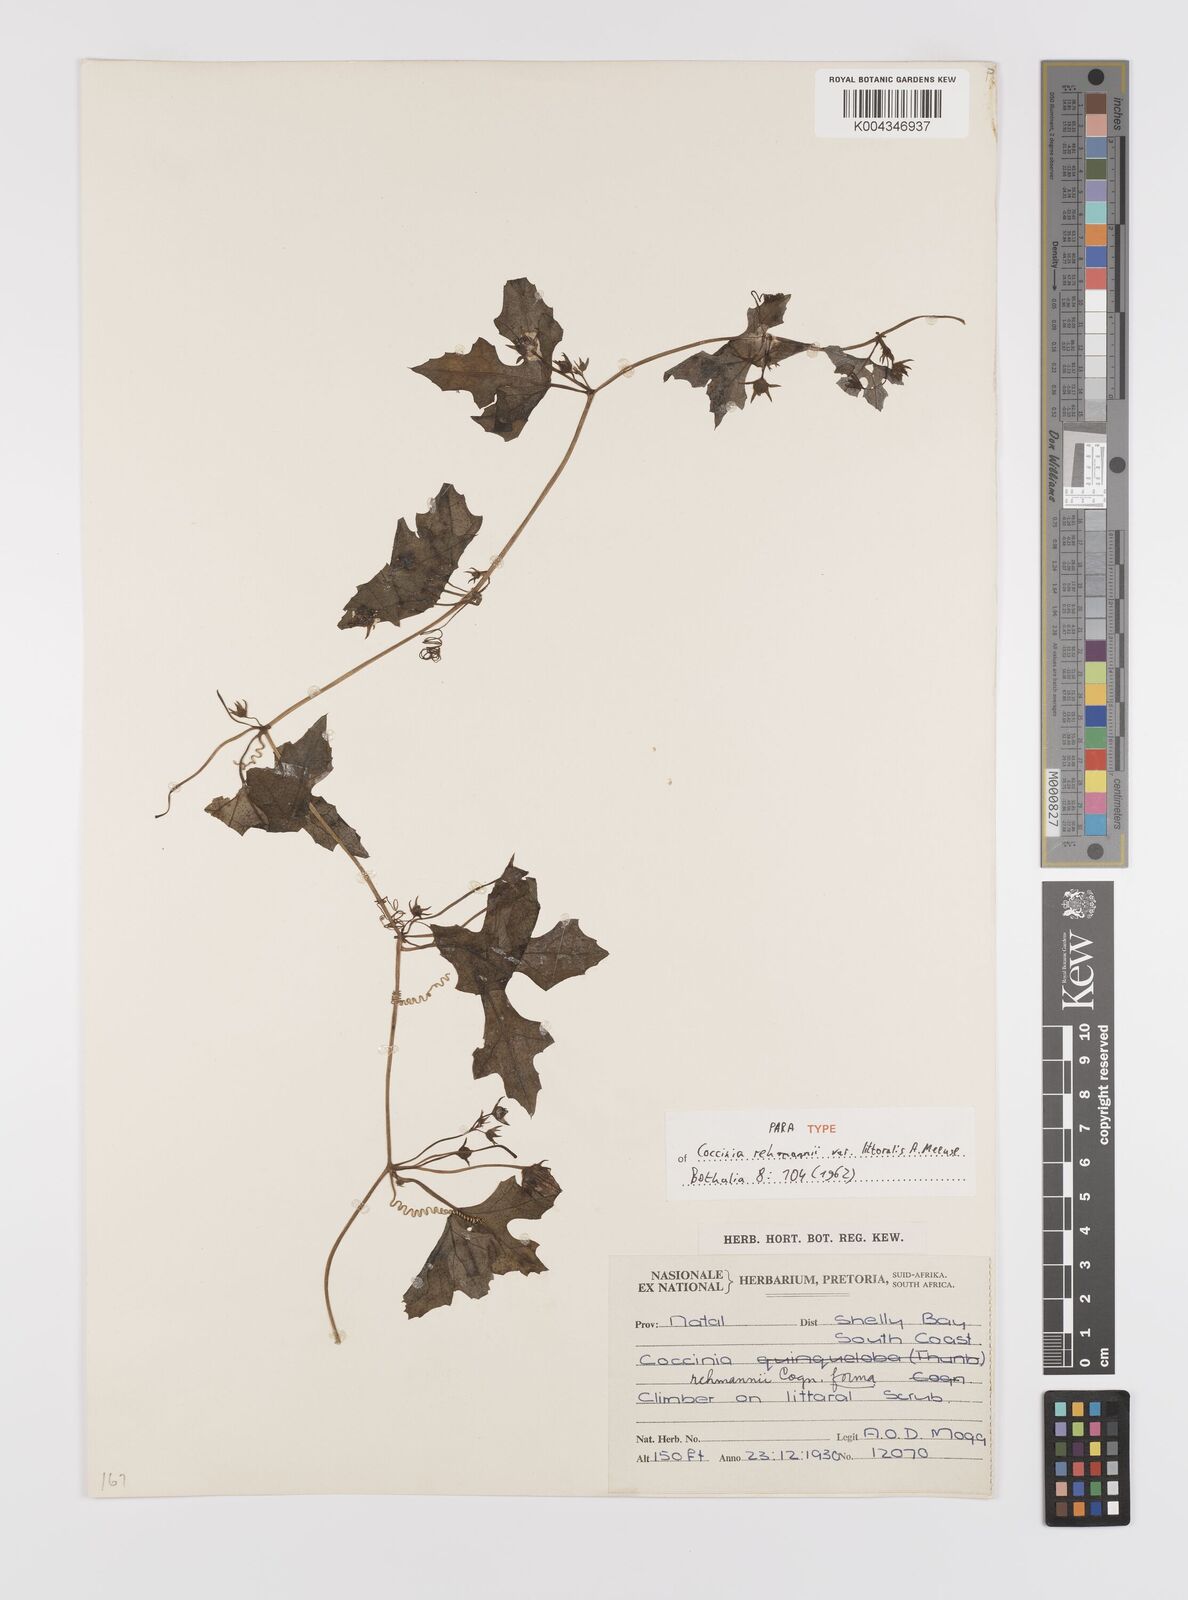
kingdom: Plantae
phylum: Tracheophyta
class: Magnoliopsida
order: Cucurbitales
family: Cucurbitaceae
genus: Coccinia
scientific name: Coccinia rehmannii
